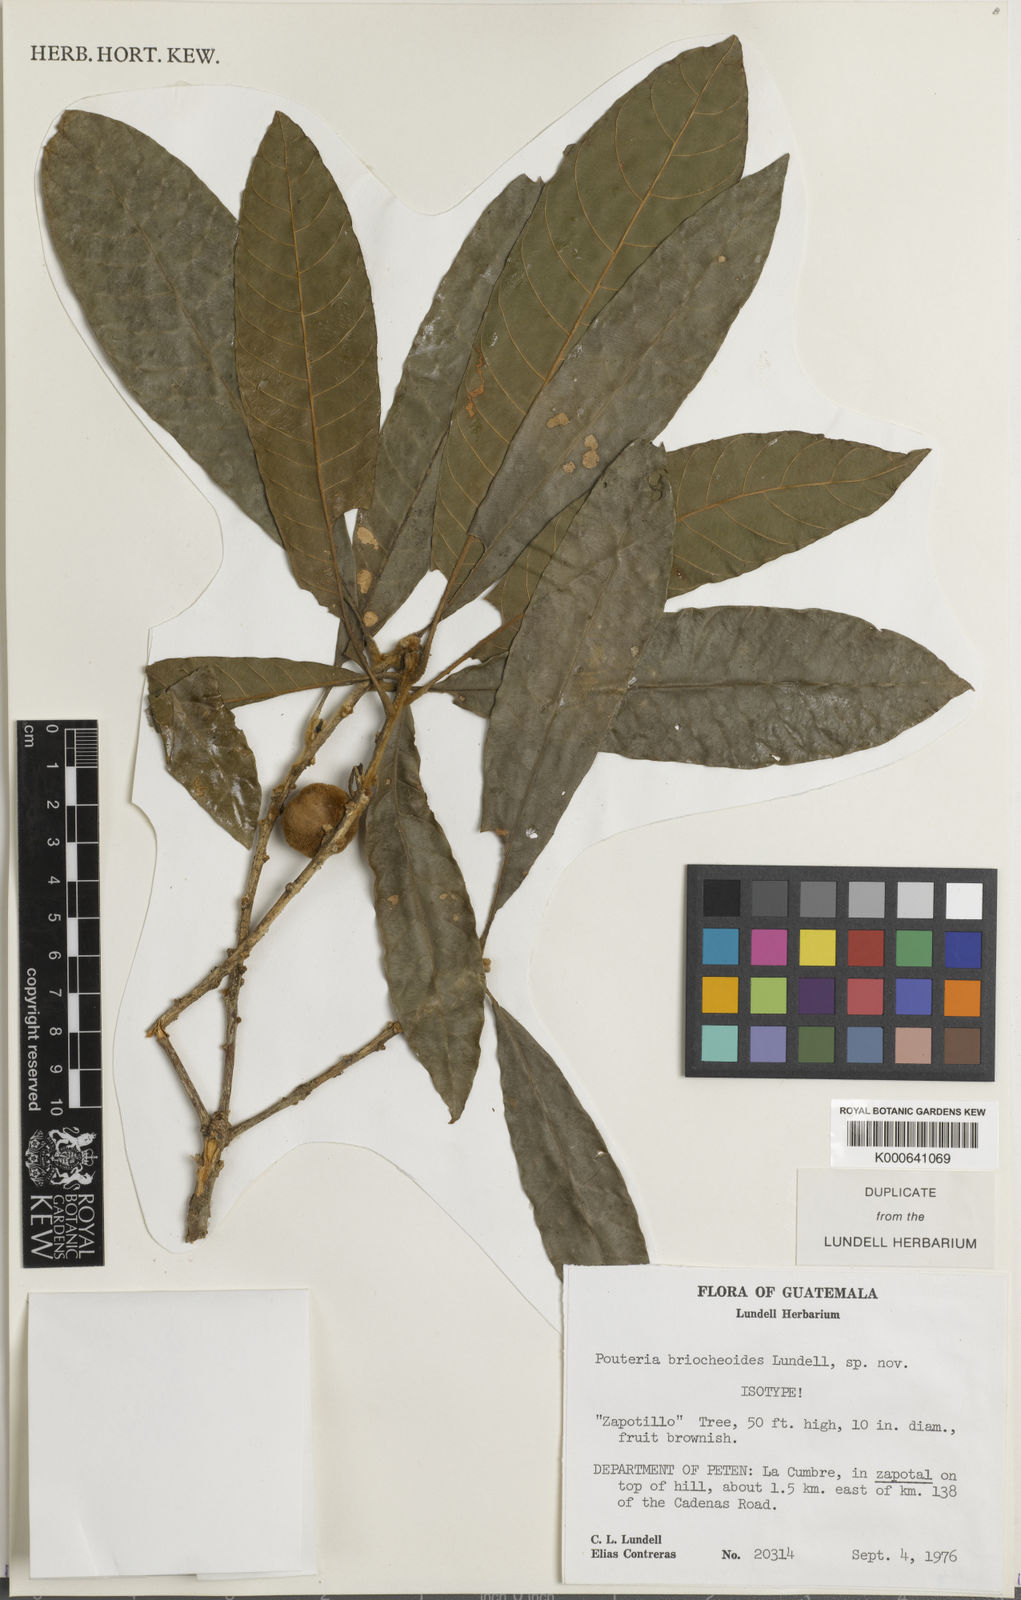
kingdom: Plantae
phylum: Tracheophyta
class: Magnoliopsida
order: Ericales
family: Sapotaceae
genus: Pouteria
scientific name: Pouteria briocheoides
